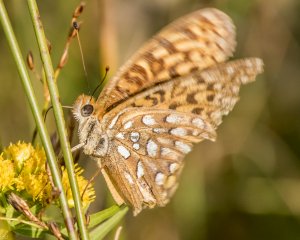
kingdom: Animalia
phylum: Arthropoda
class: Insecta
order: Lepidoptera
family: Nymphalidae
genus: Speyeria
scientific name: Speyeria atlantis
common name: Atlantis Fritillary
